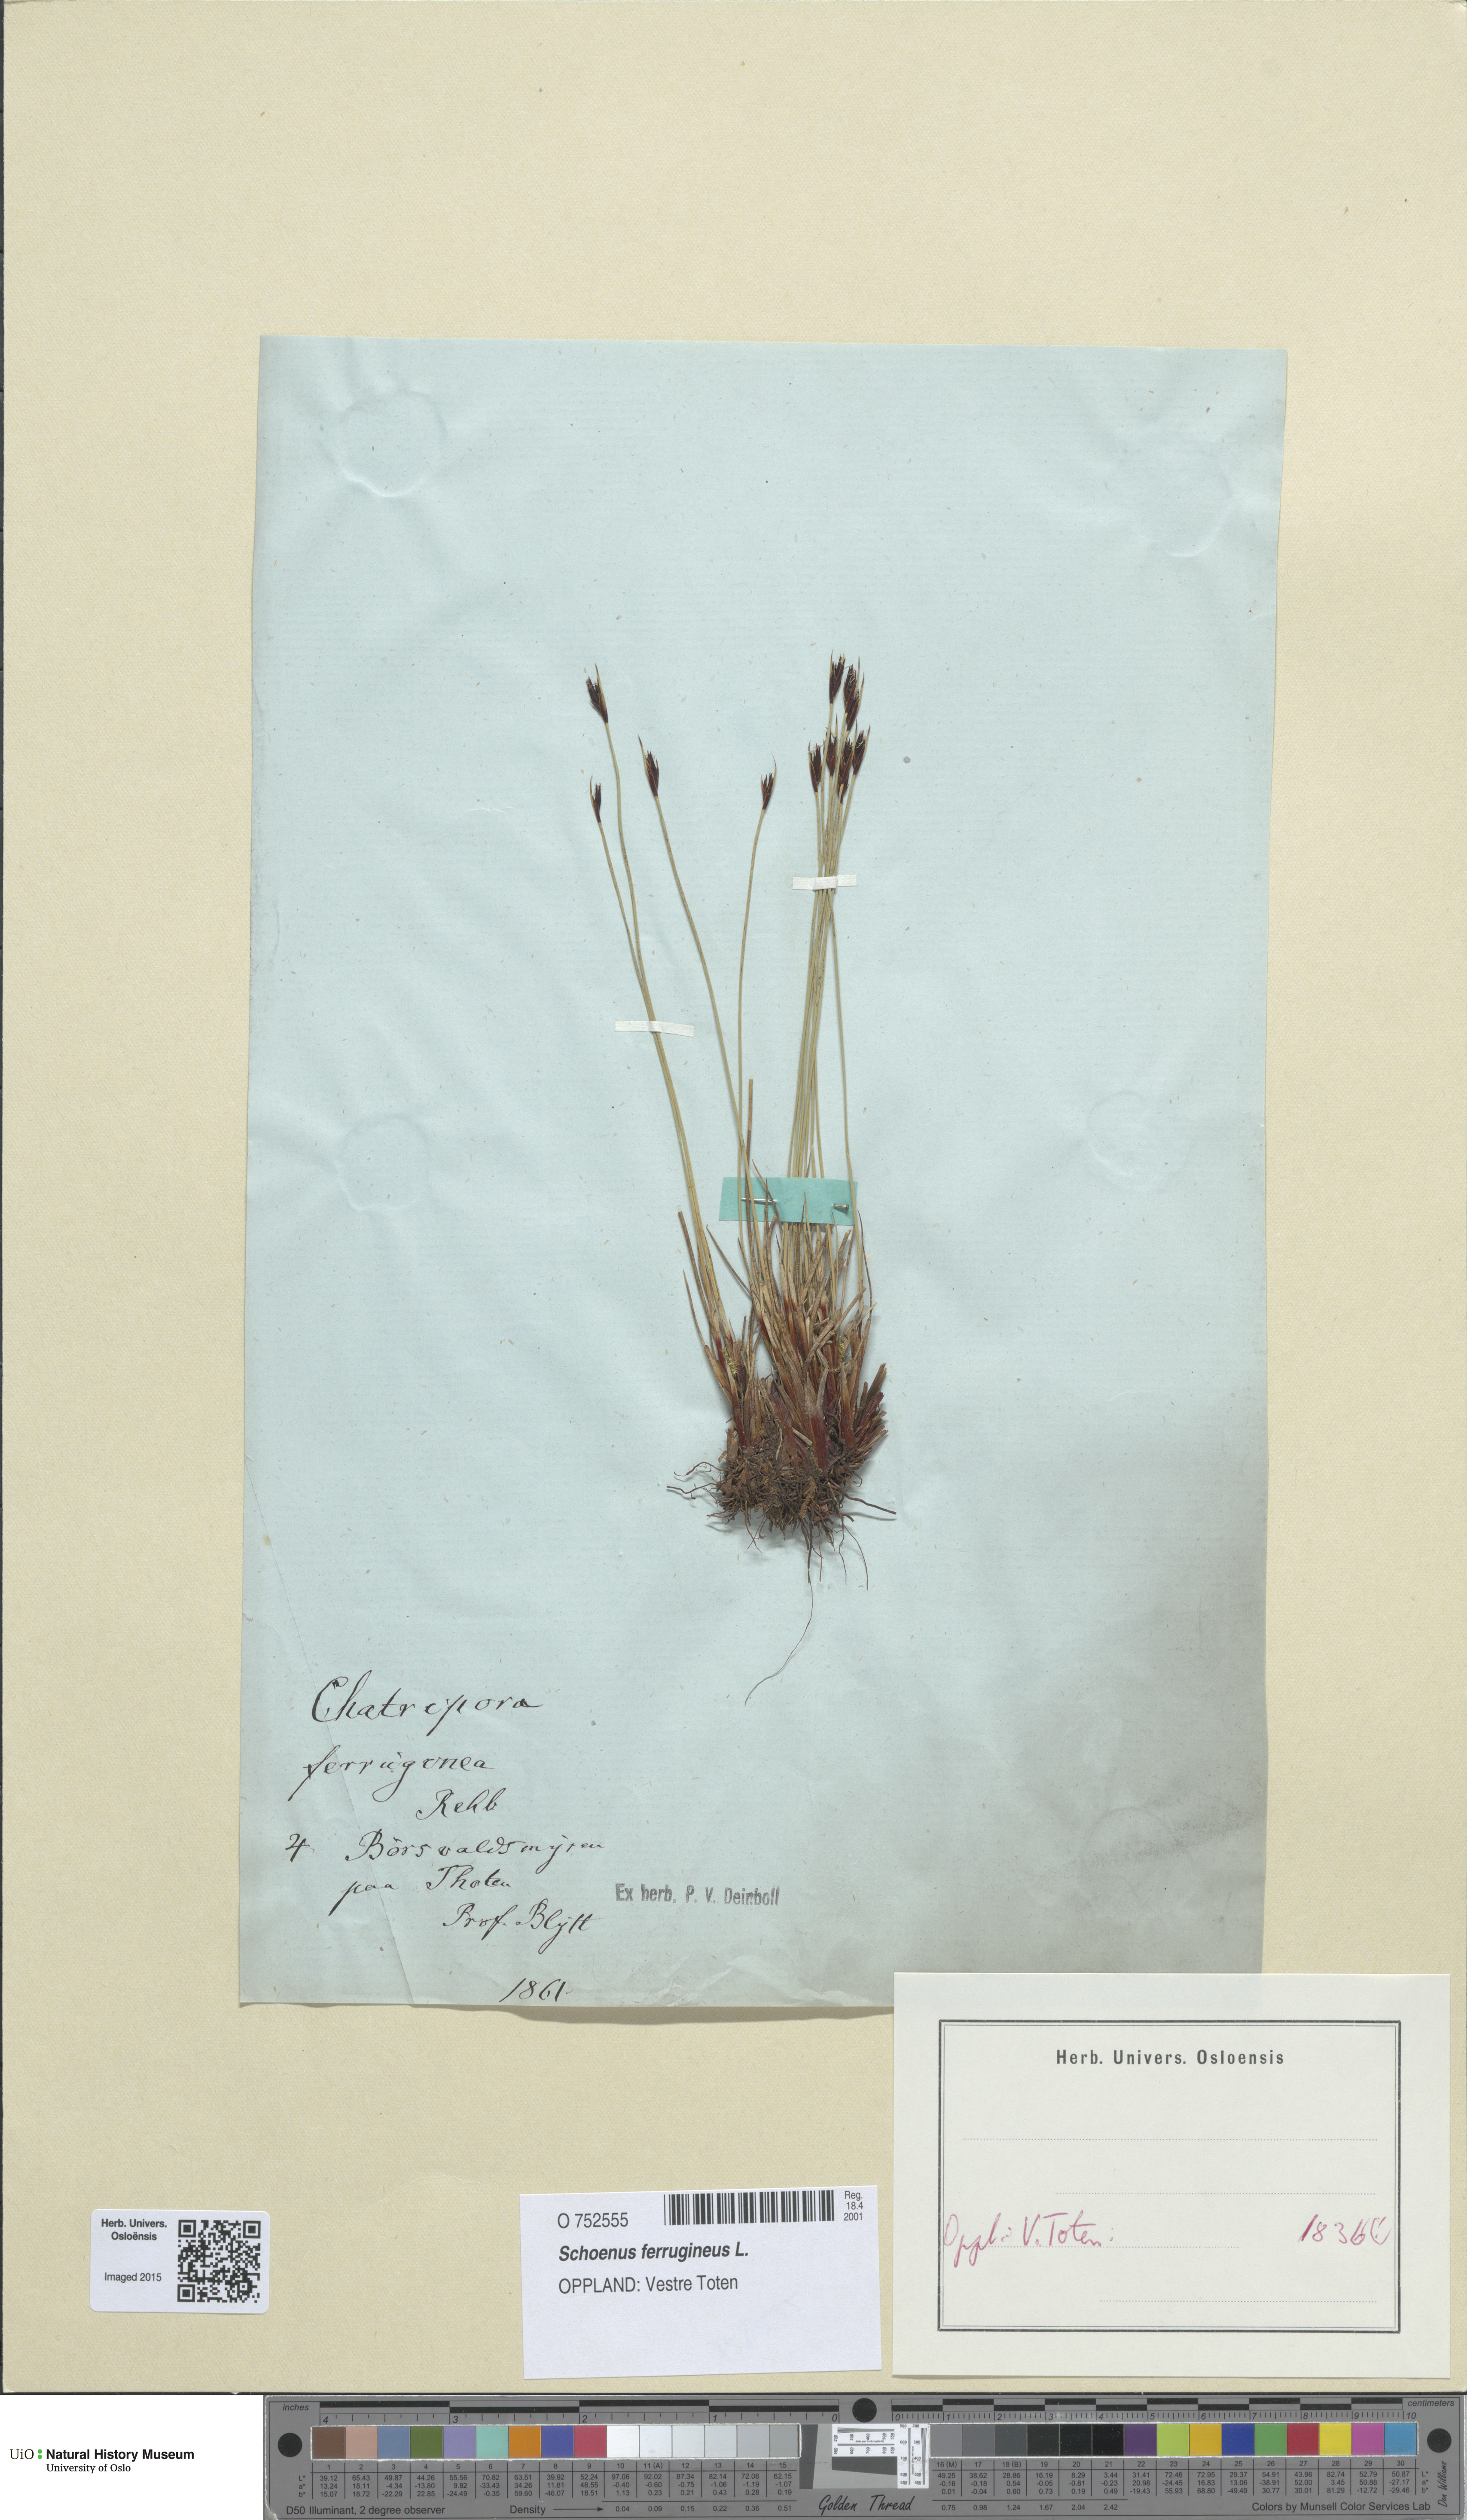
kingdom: Plantae
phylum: Tracheophyta
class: Liliopsida
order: Poales
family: Cyperaceae
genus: Schoenus
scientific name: Schoenus ferrugineus
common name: Brown bog-rush
